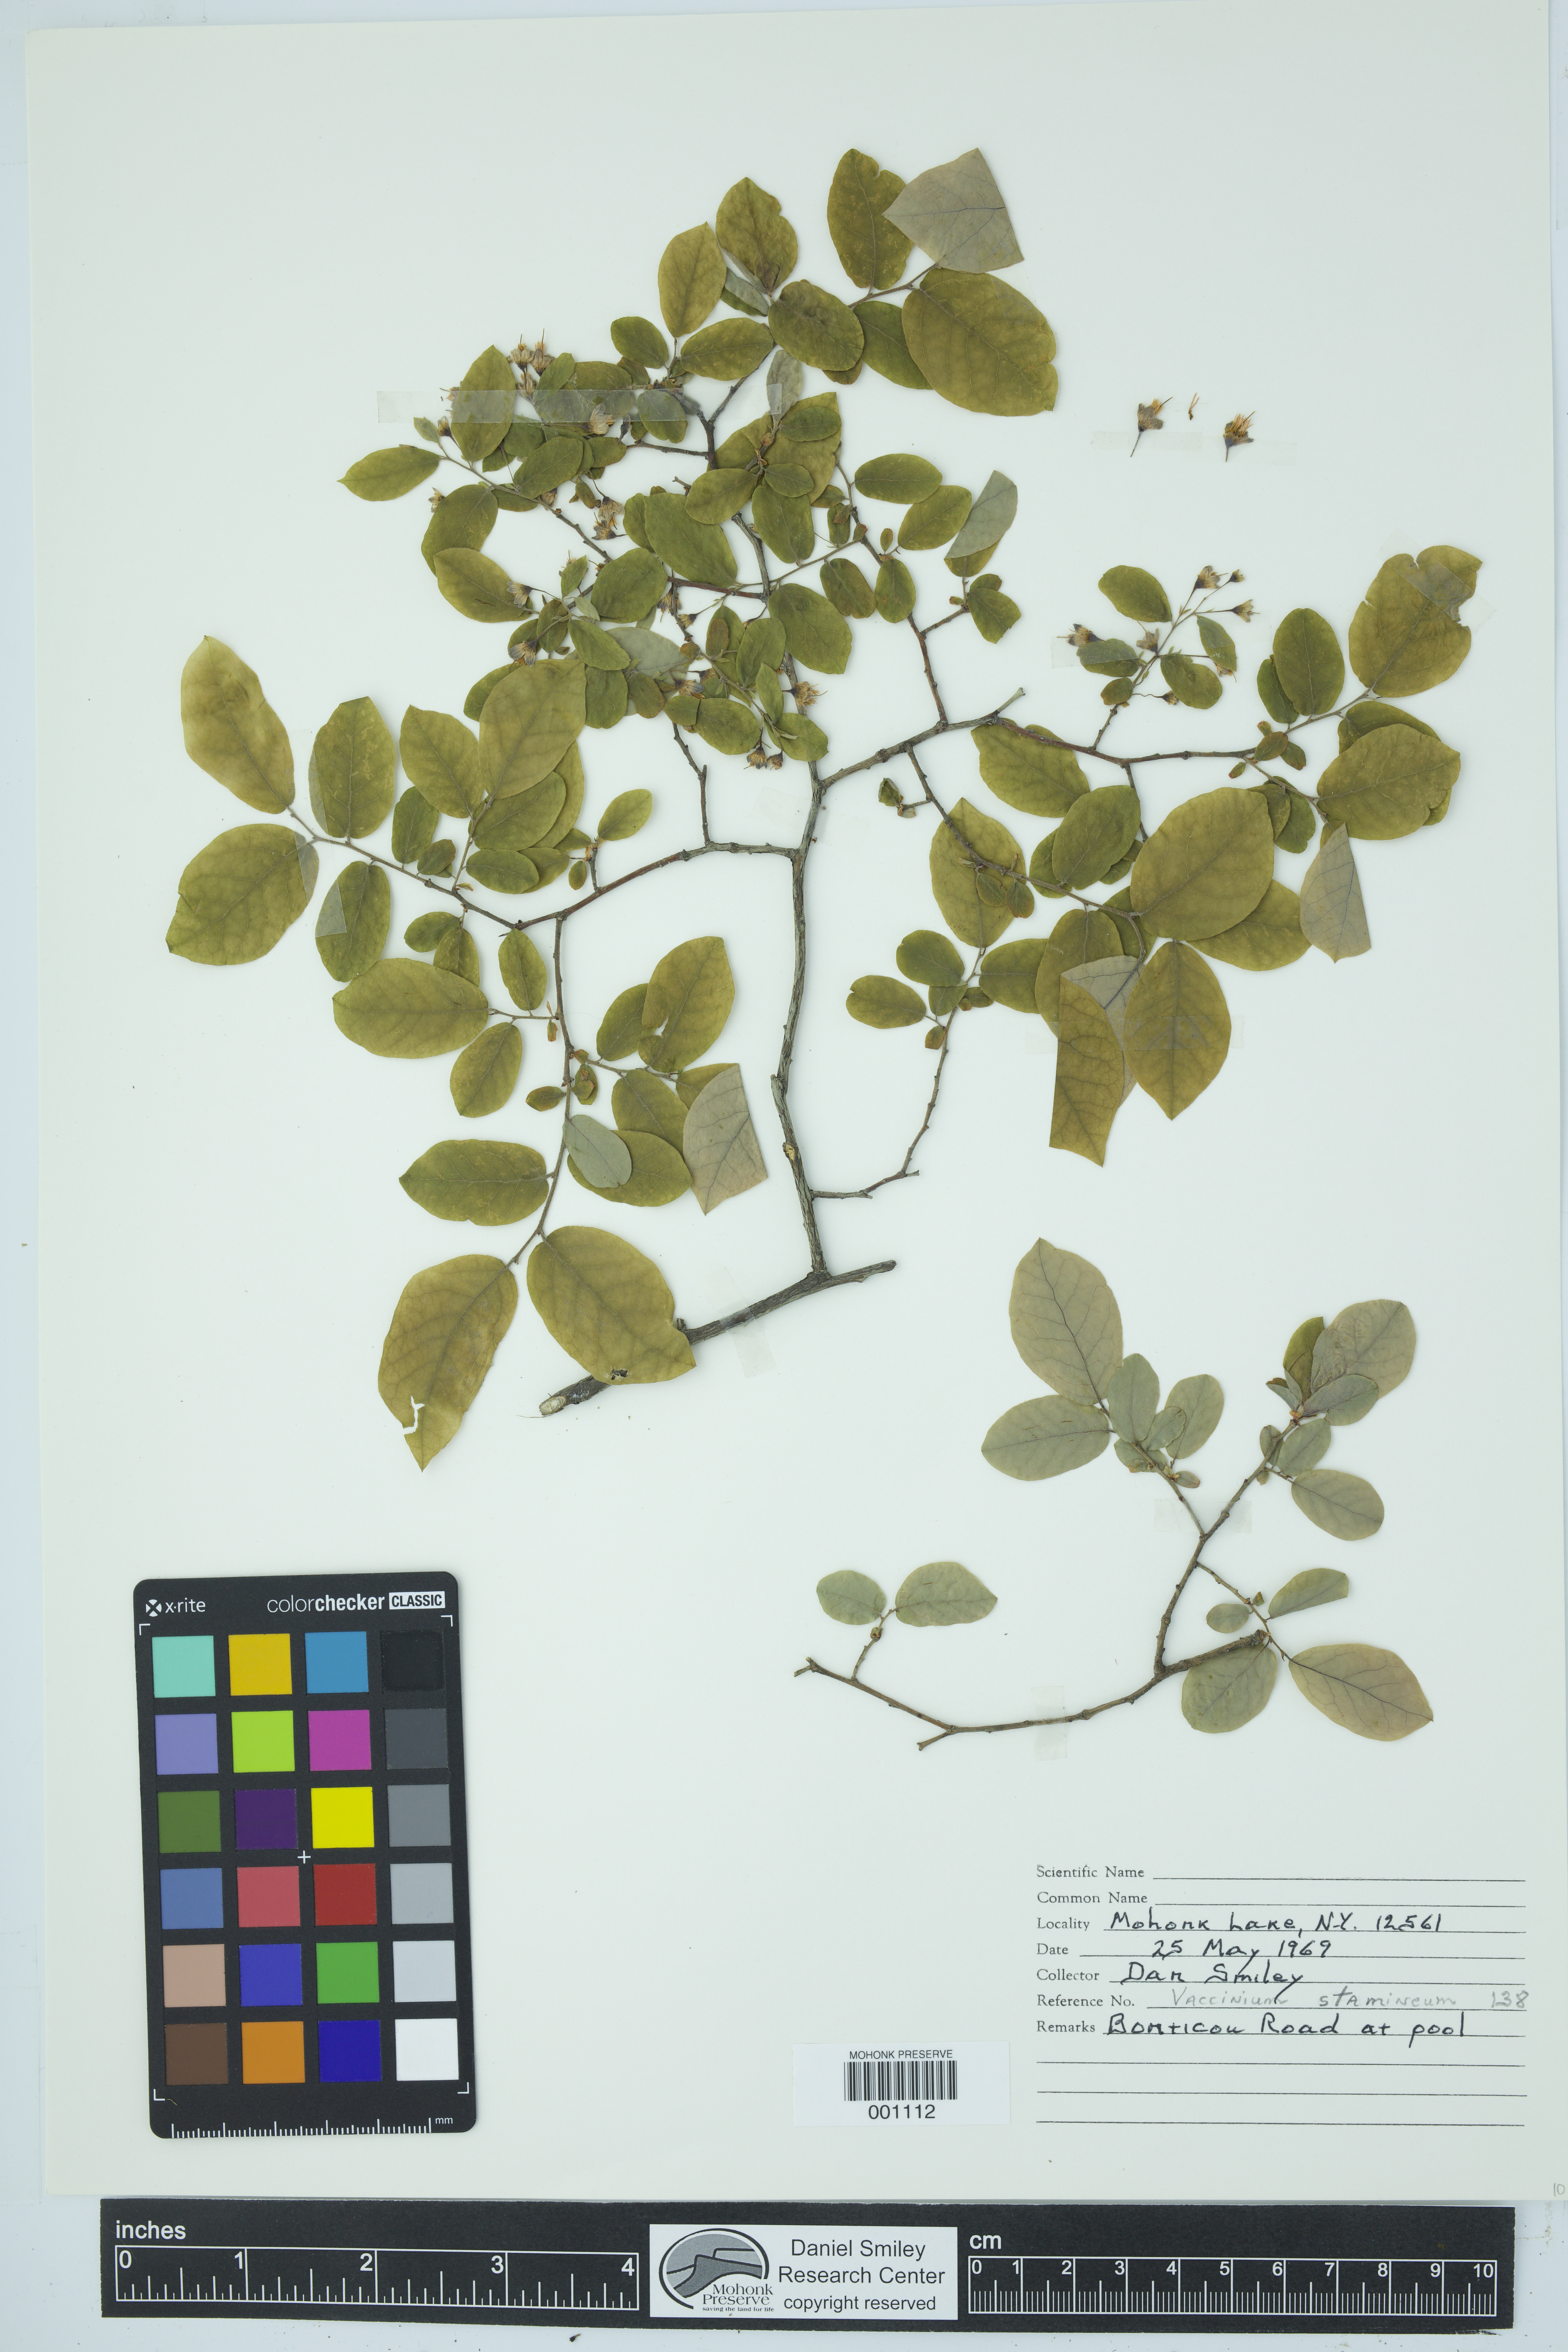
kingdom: Plantae
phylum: Tracheophyta
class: Magnoliopsida
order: Ericales
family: Ericaceae
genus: Vaccinium
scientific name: Vaccinium stamineum
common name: Deerberry
